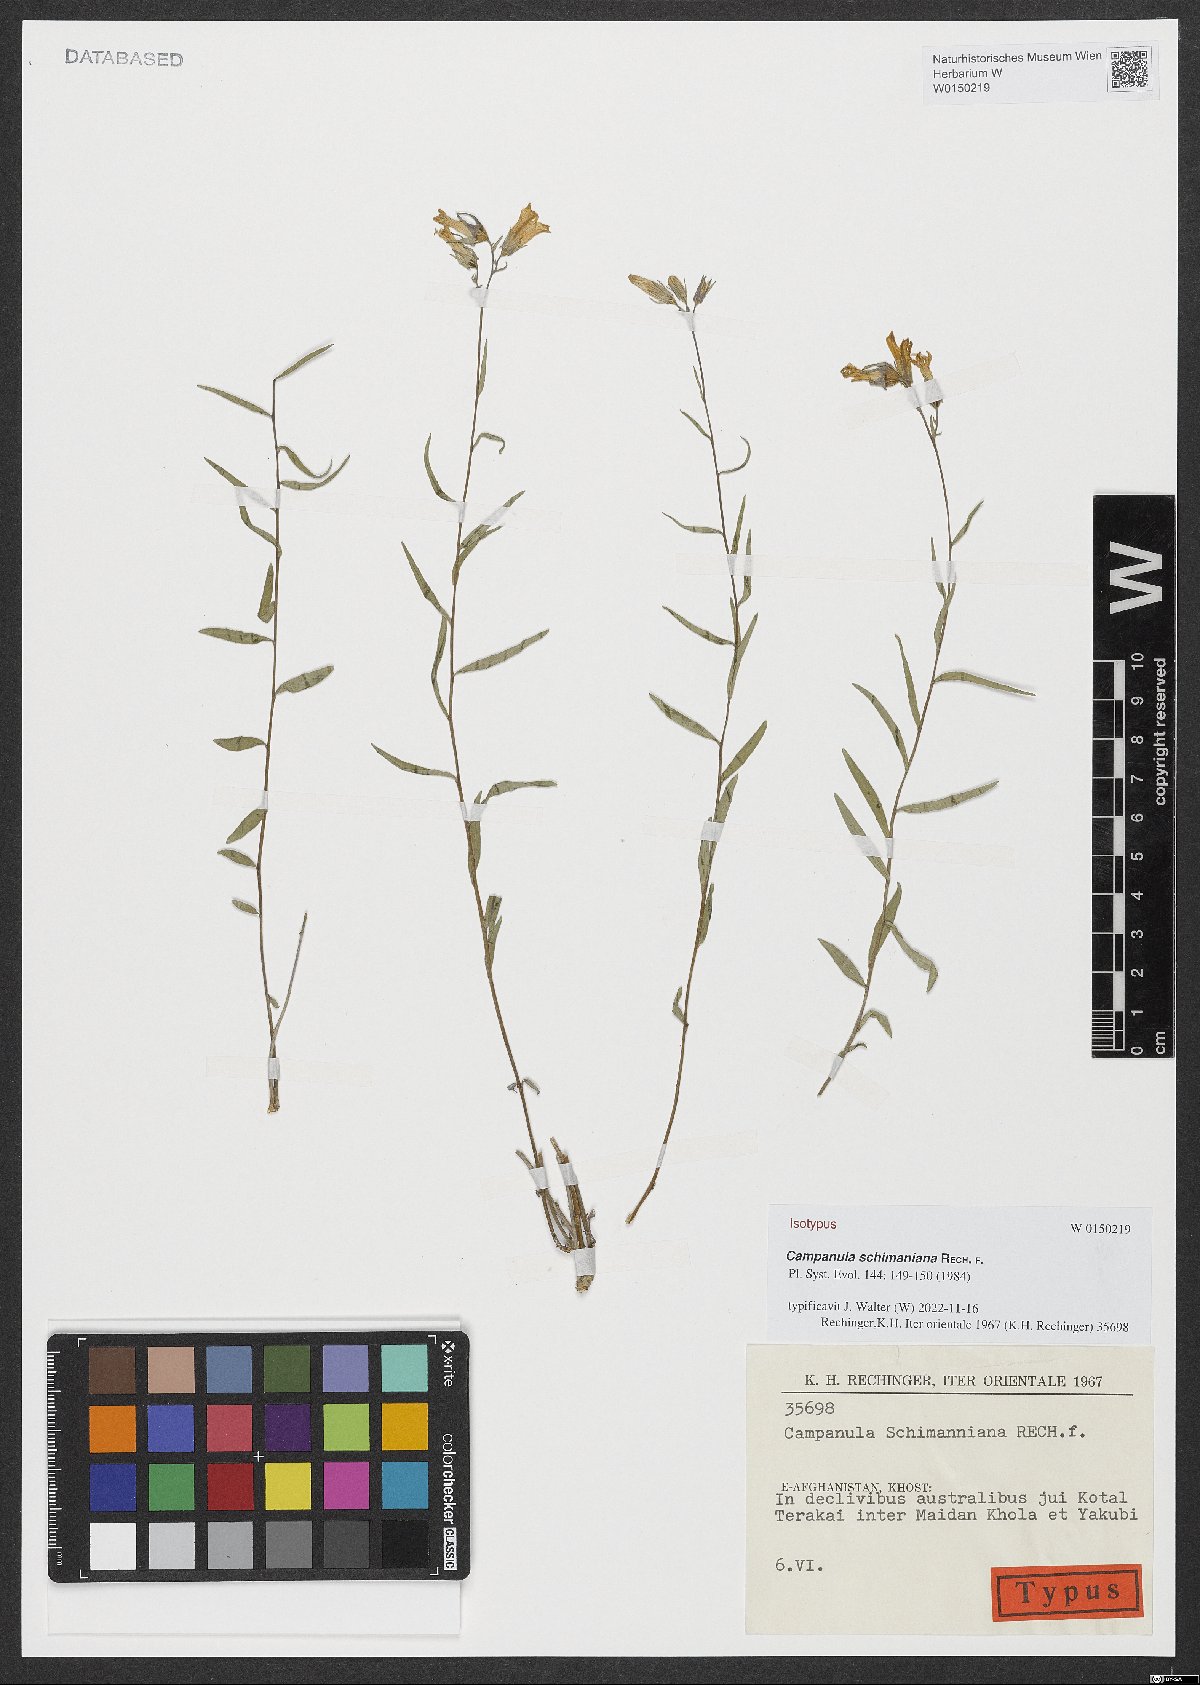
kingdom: Plantae
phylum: Tracheophyta
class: Magnoliopsida
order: Asterales
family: Campanulaceae
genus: Campanula
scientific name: Campanula schimaniana
